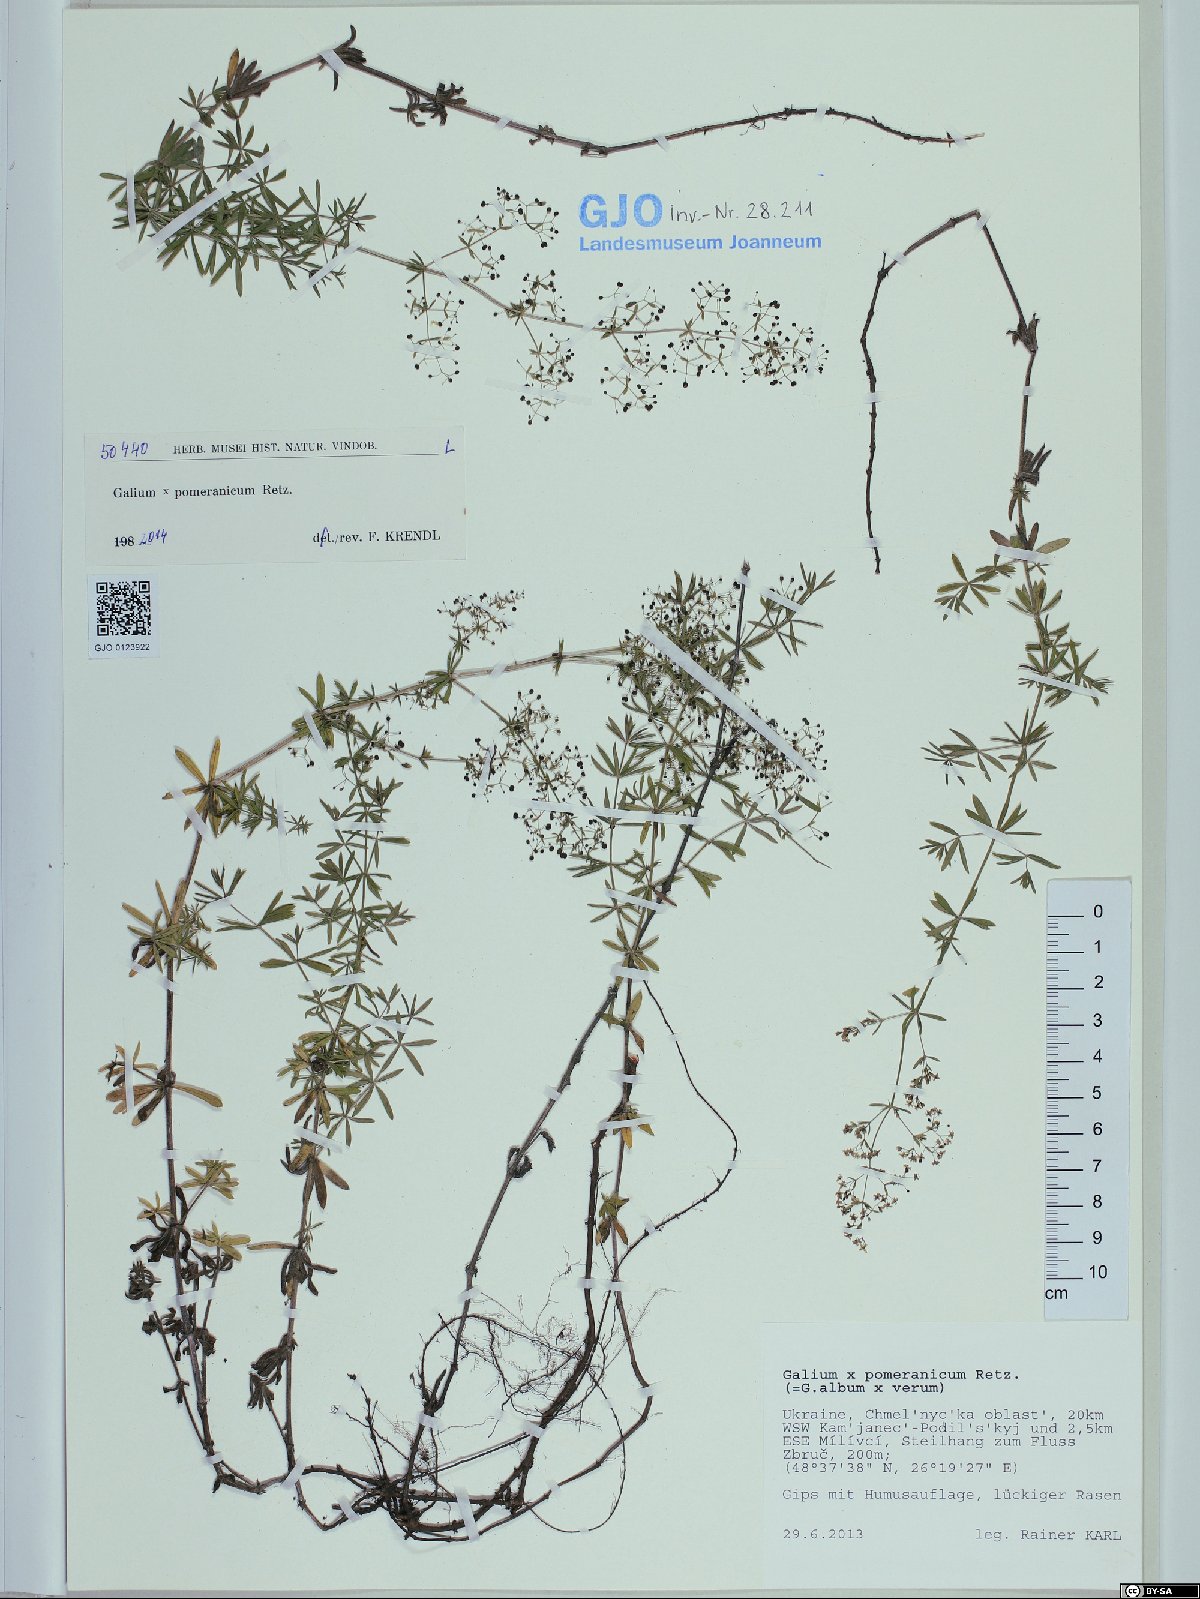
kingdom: Plantae
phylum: Tracheophyta
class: Magnoliopsida
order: Gentianales
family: Rubiaceae
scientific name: Rubiaceae
